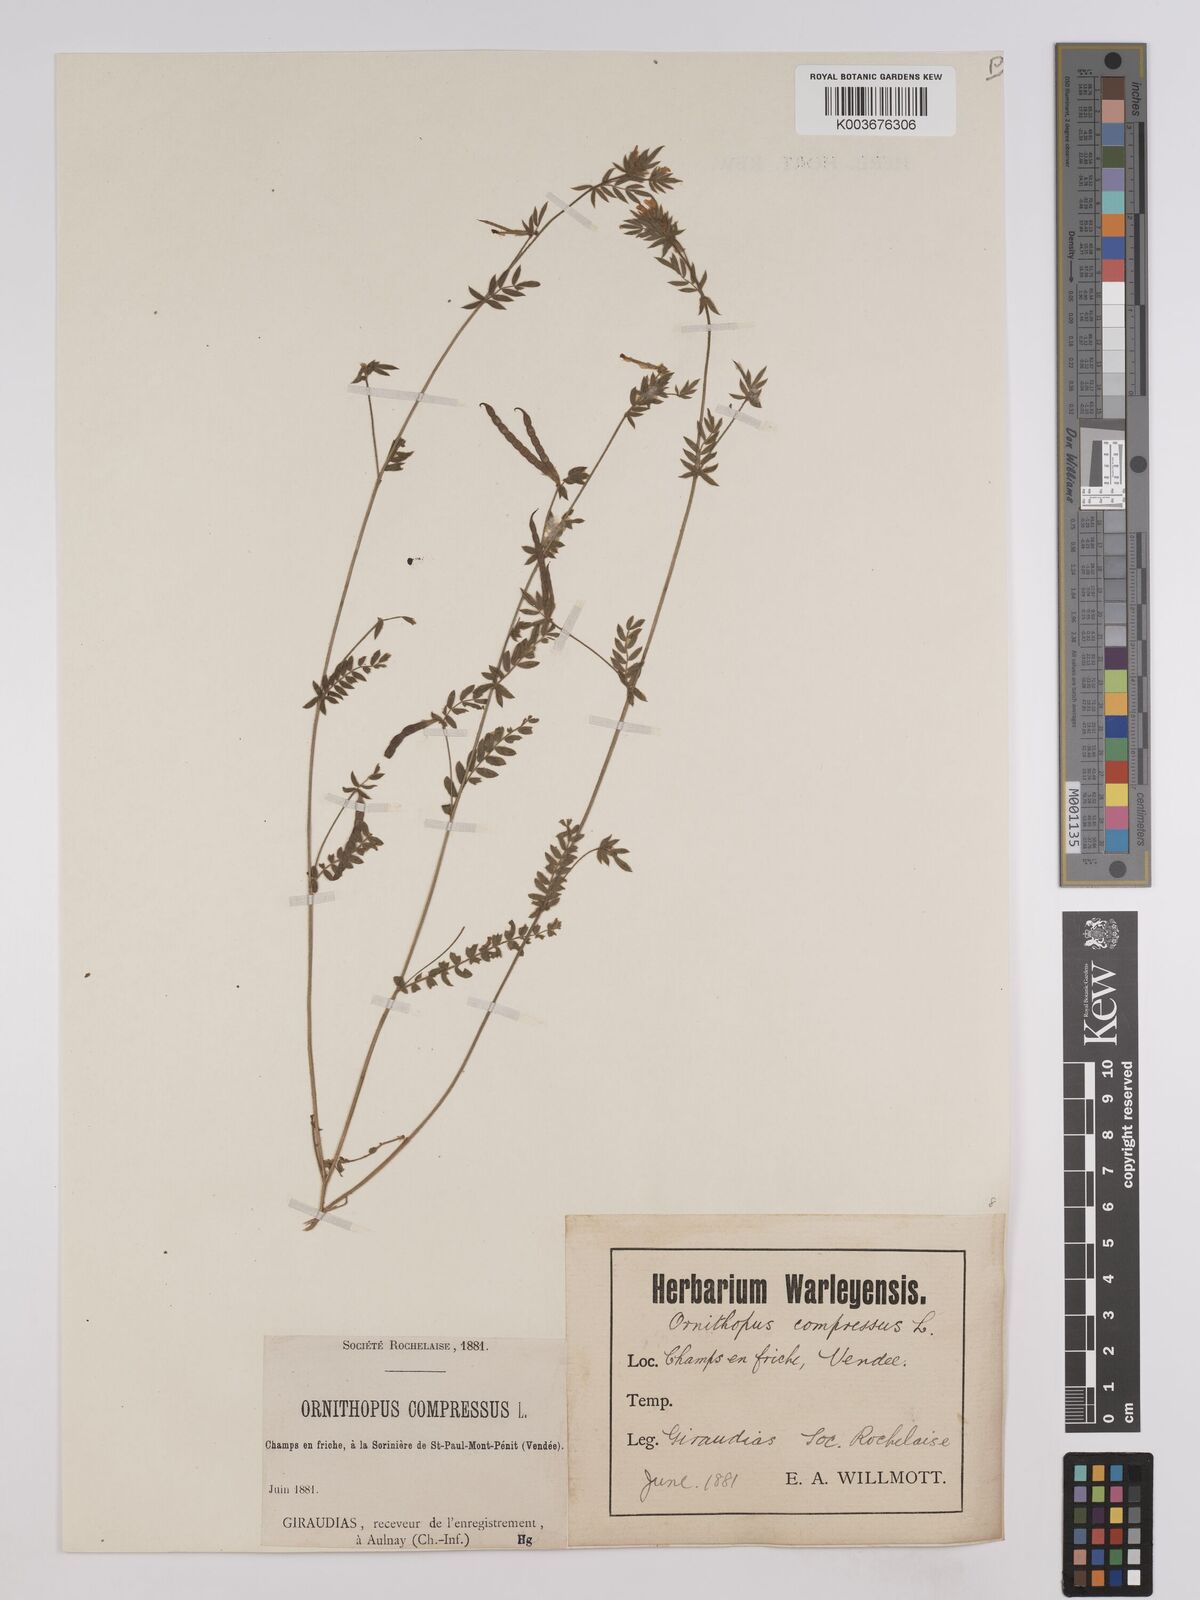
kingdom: Plantae
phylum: Tracheophyta
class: Magnoliopsida
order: Fabales
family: Fabaceae
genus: Ornithopus
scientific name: Ornithopus compressus
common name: Yellow serradella
